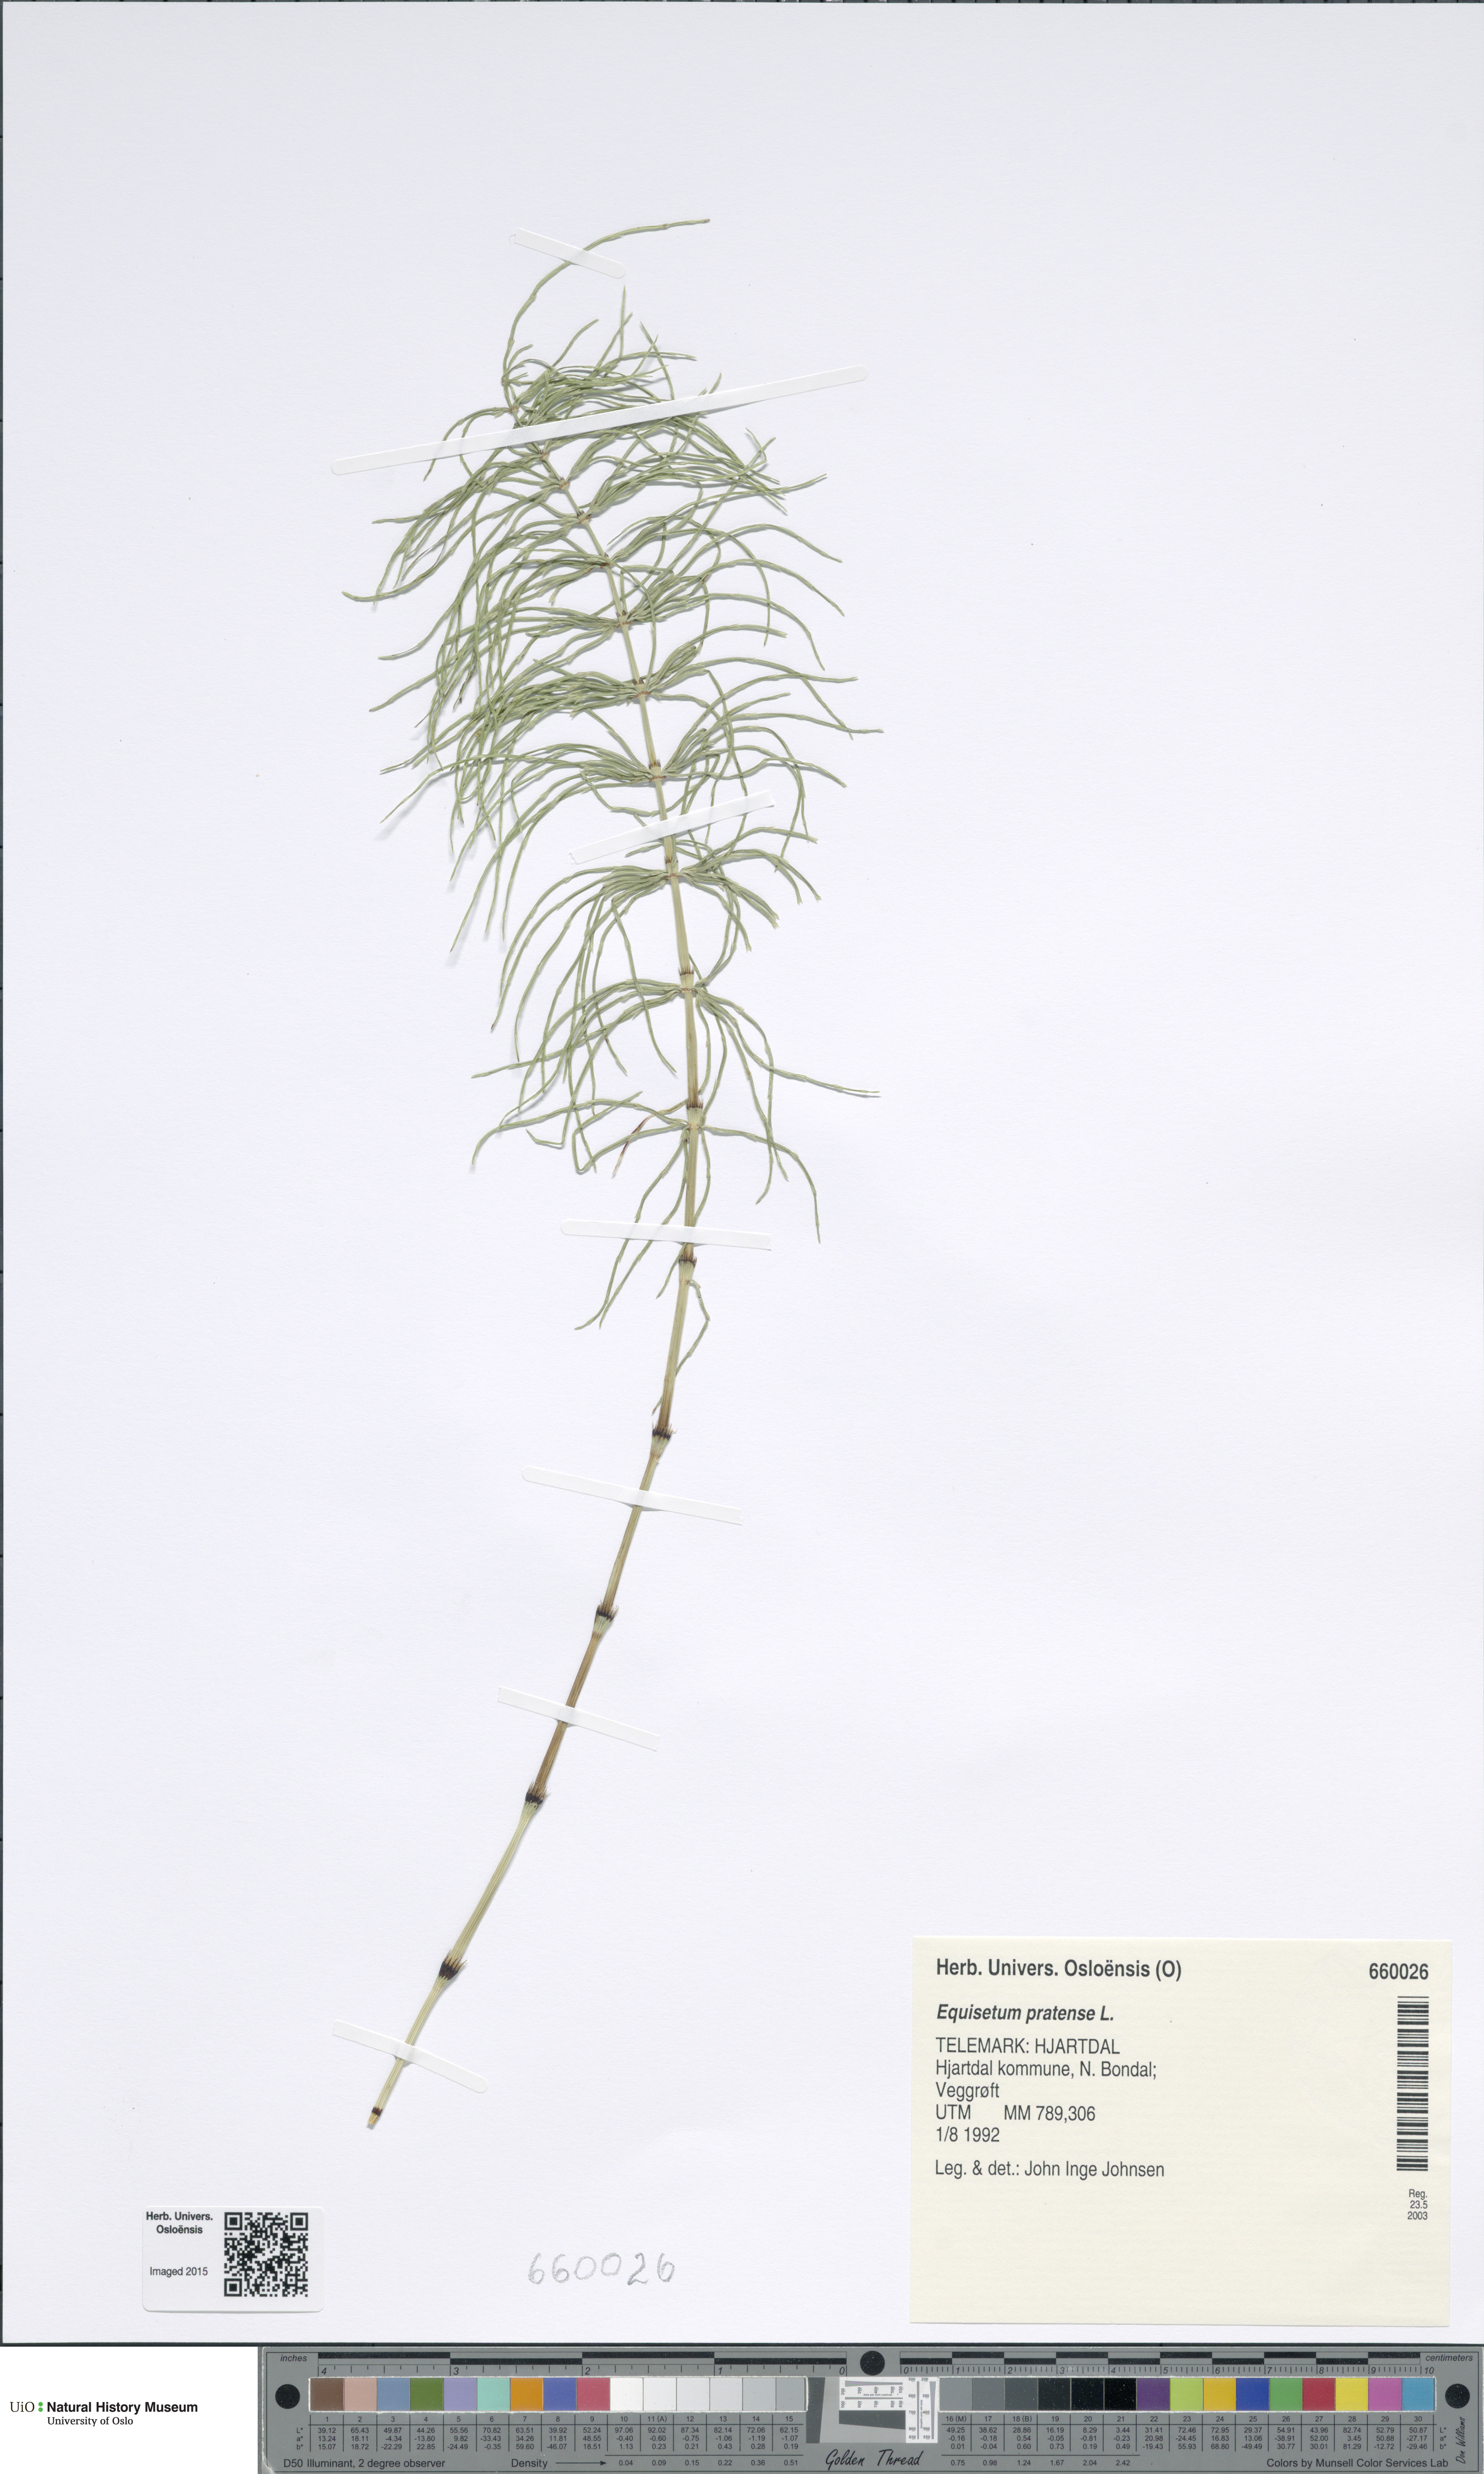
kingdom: Plantae
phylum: Tracheophyta
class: Polypodiopsida
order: Equisetales
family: Equisetaceae
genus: Equisetum
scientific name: Equisetum pratense
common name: Meadow horsetail
